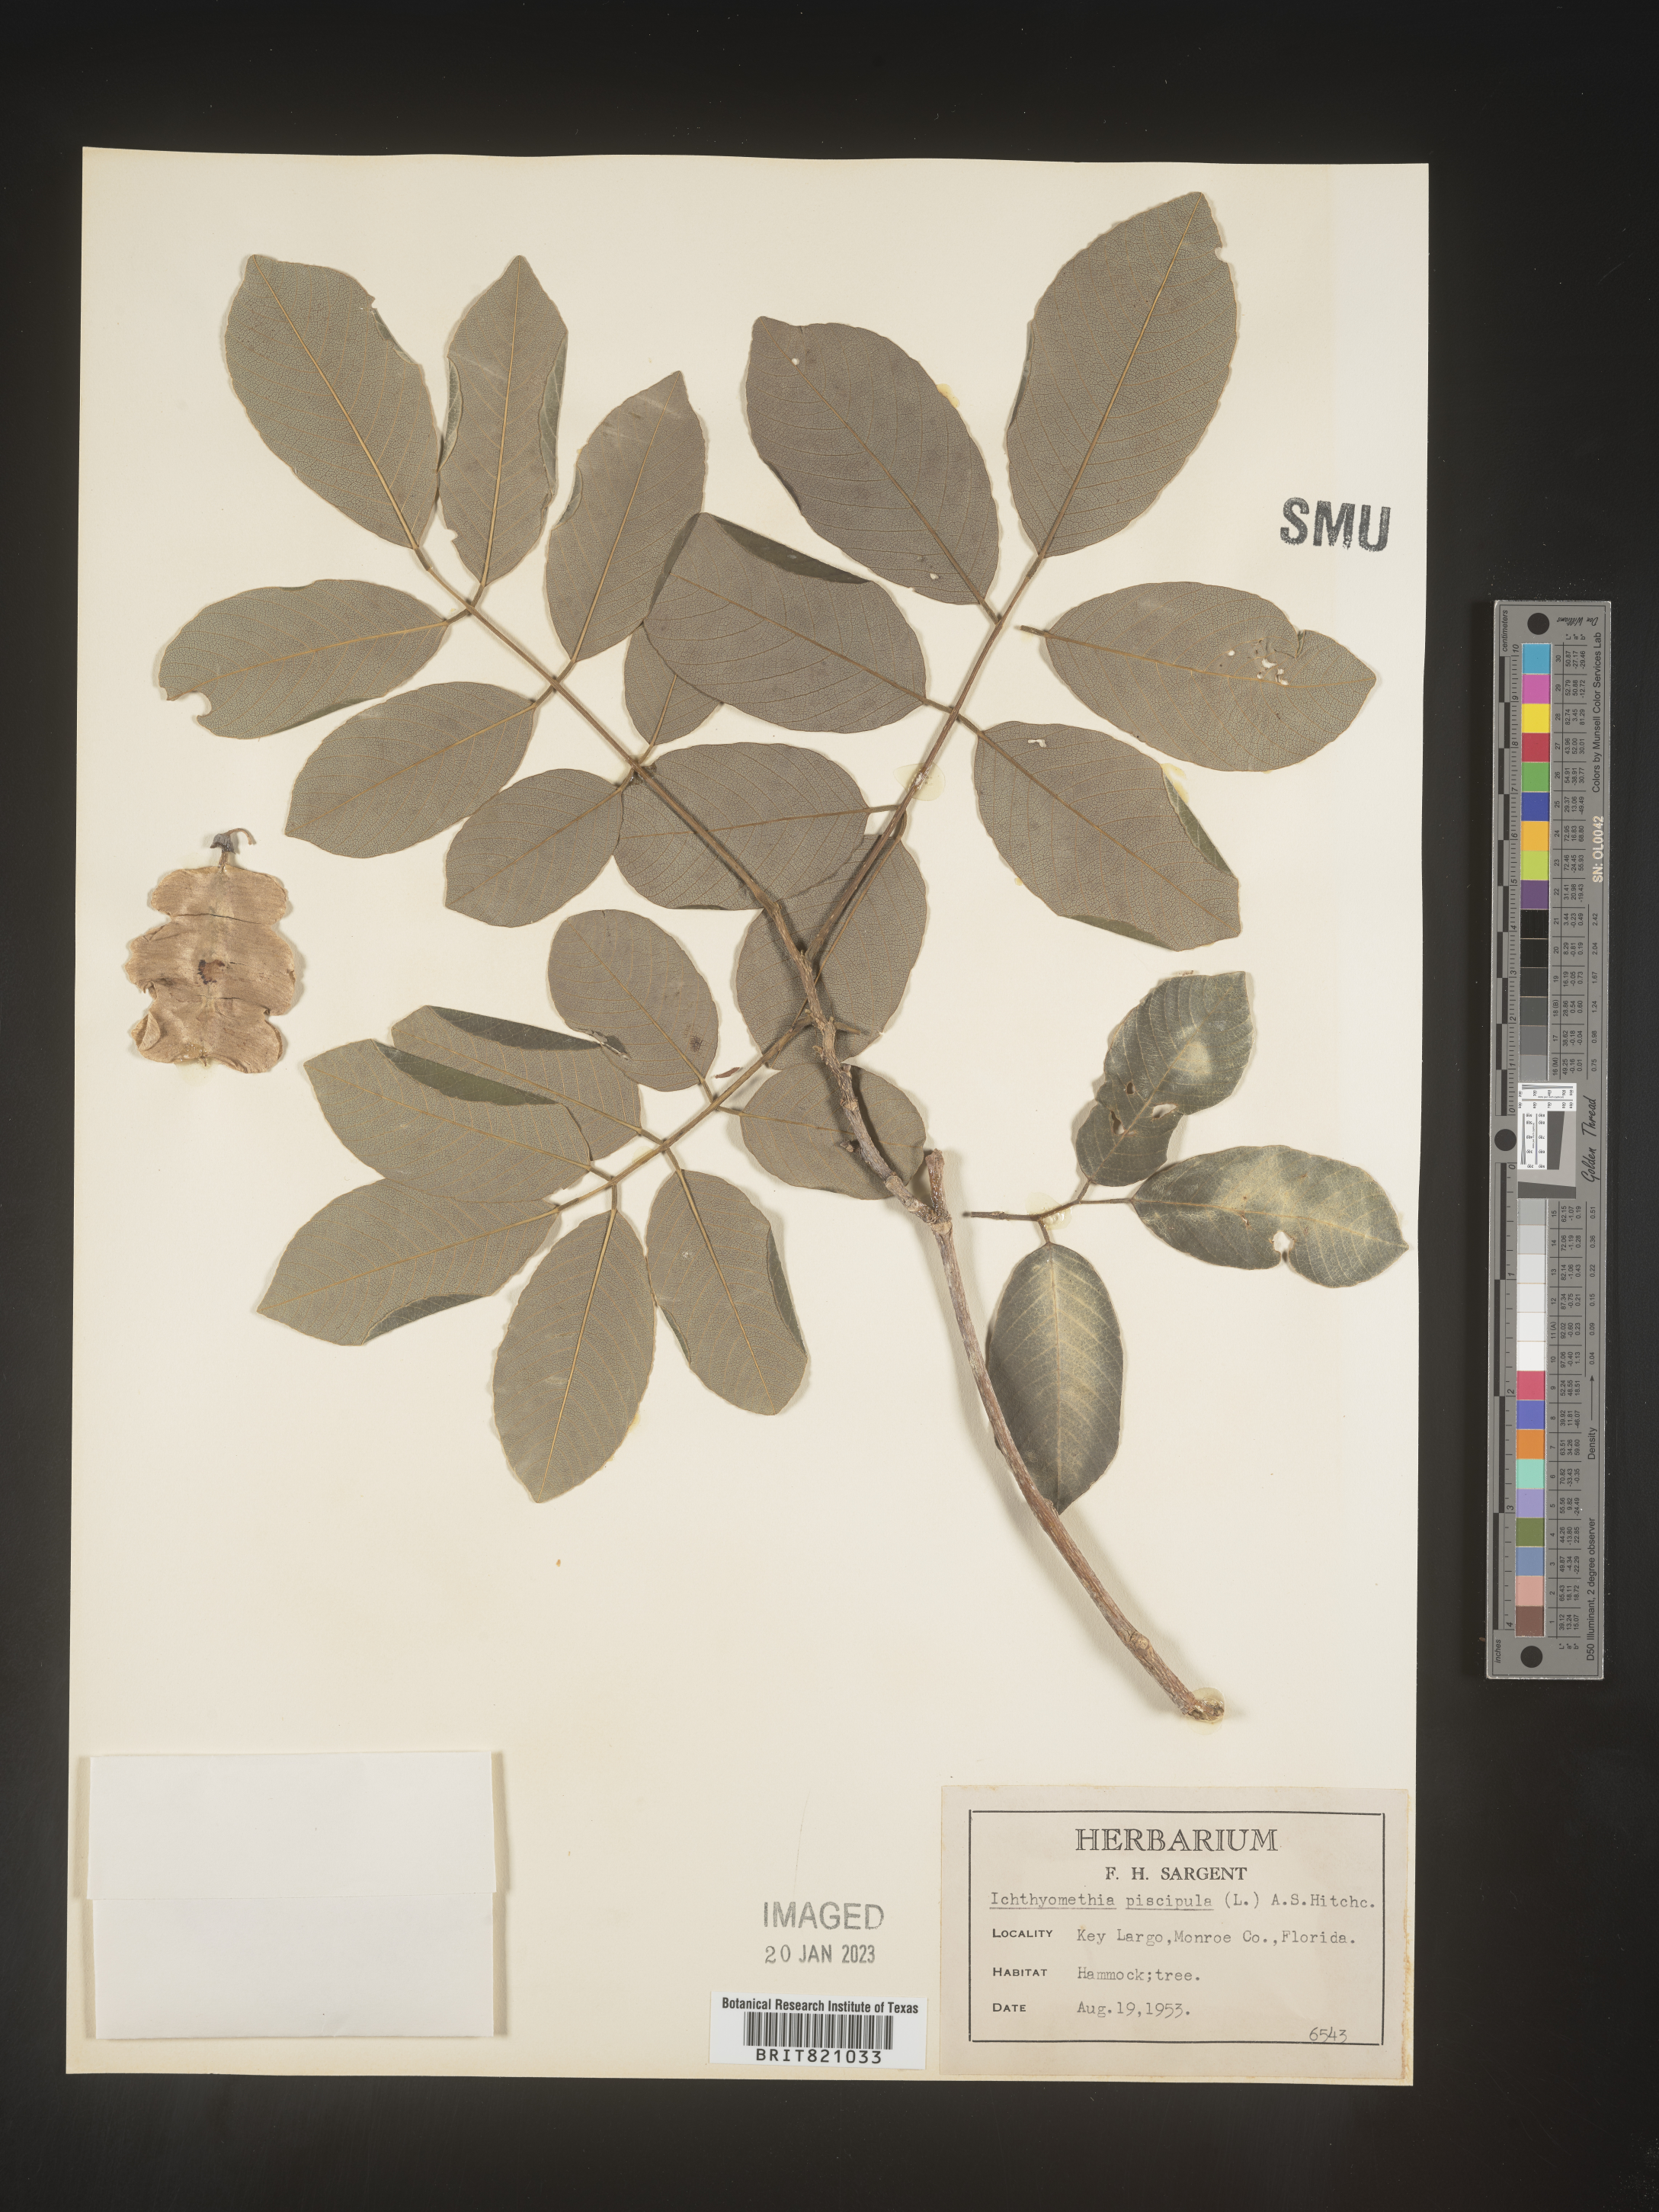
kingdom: Plantae
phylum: Tracheophyta
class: Magnoliopsida
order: Fabales
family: Fabaceae
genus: Ichthyomethia
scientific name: Ichthyomethia
